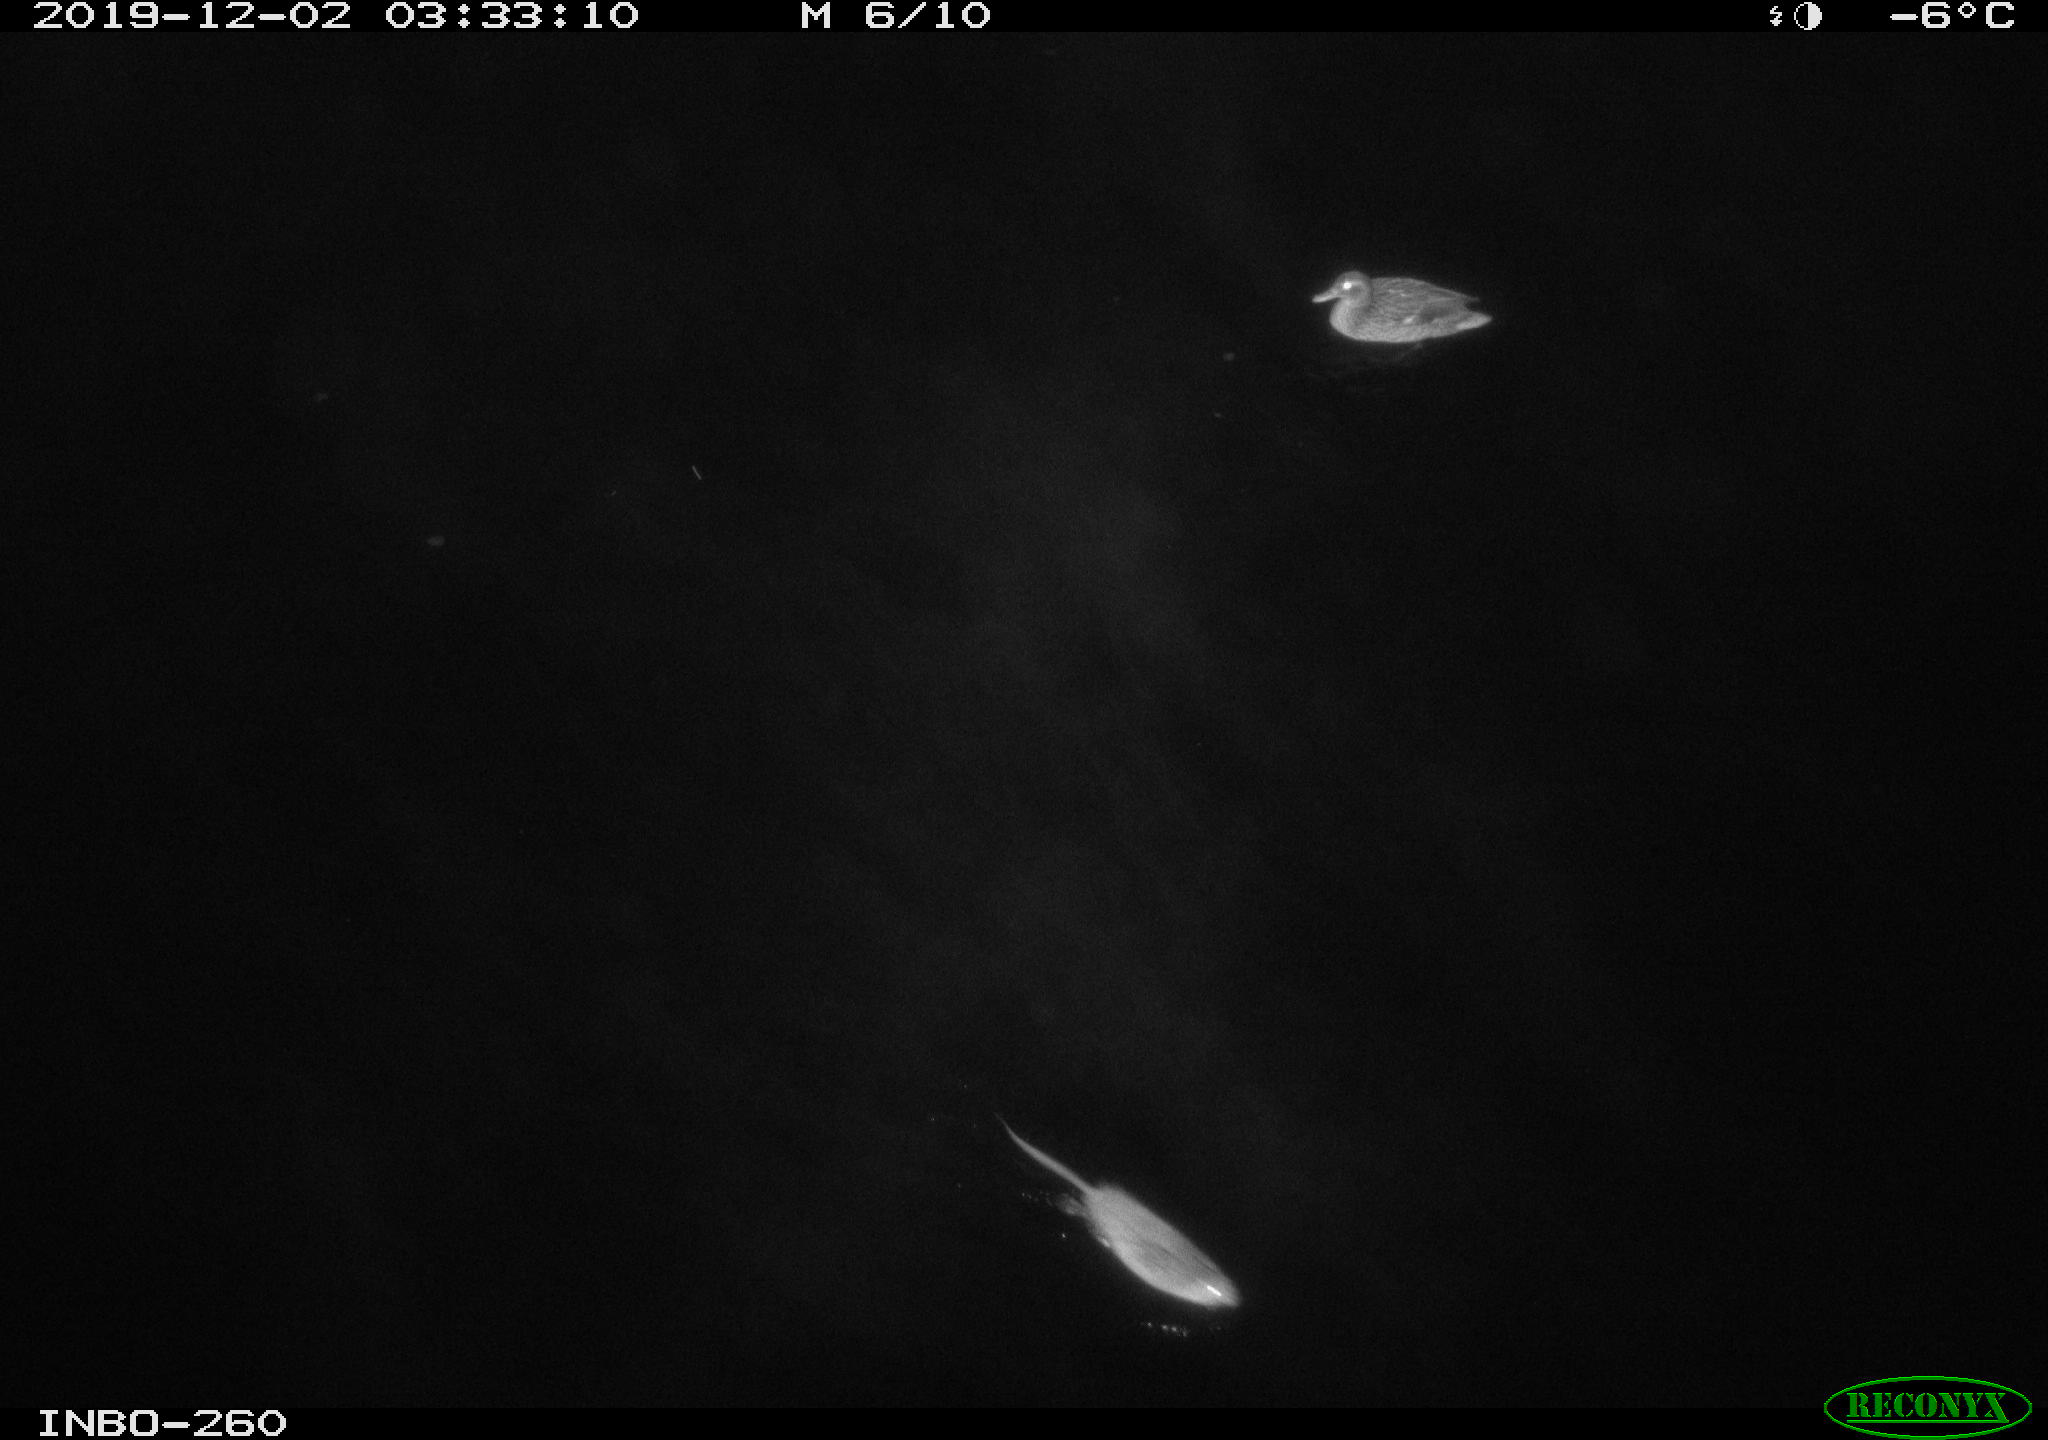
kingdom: Animalia
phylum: Chordata
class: Aves
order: Anseriformes
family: Anatidae
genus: Anas
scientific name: Anas platyrhynchos
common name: Mallard
